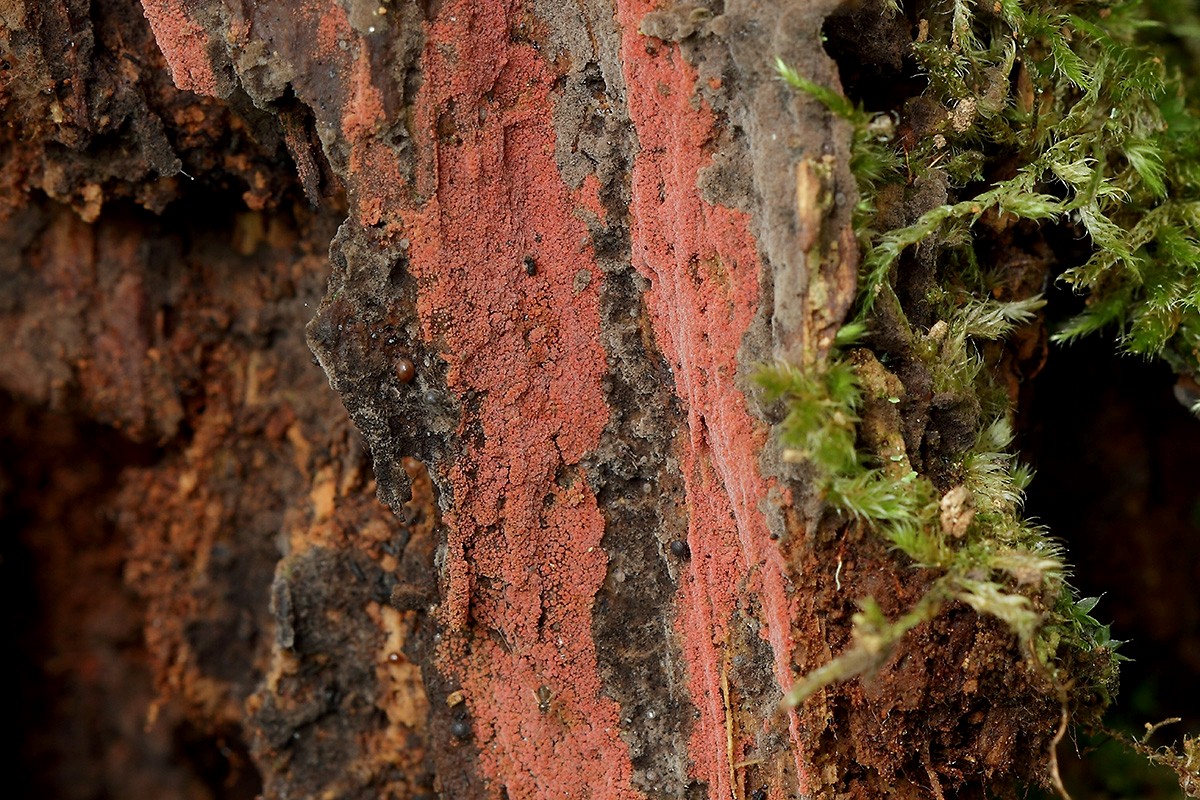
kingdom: Fungi
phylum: Basidiomycota
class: Agaricomycetes
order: Thelephorales
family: Thelephoraceae
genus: Tomentella
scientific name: Tomentella lateritia
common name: teglrød frynsehinde
